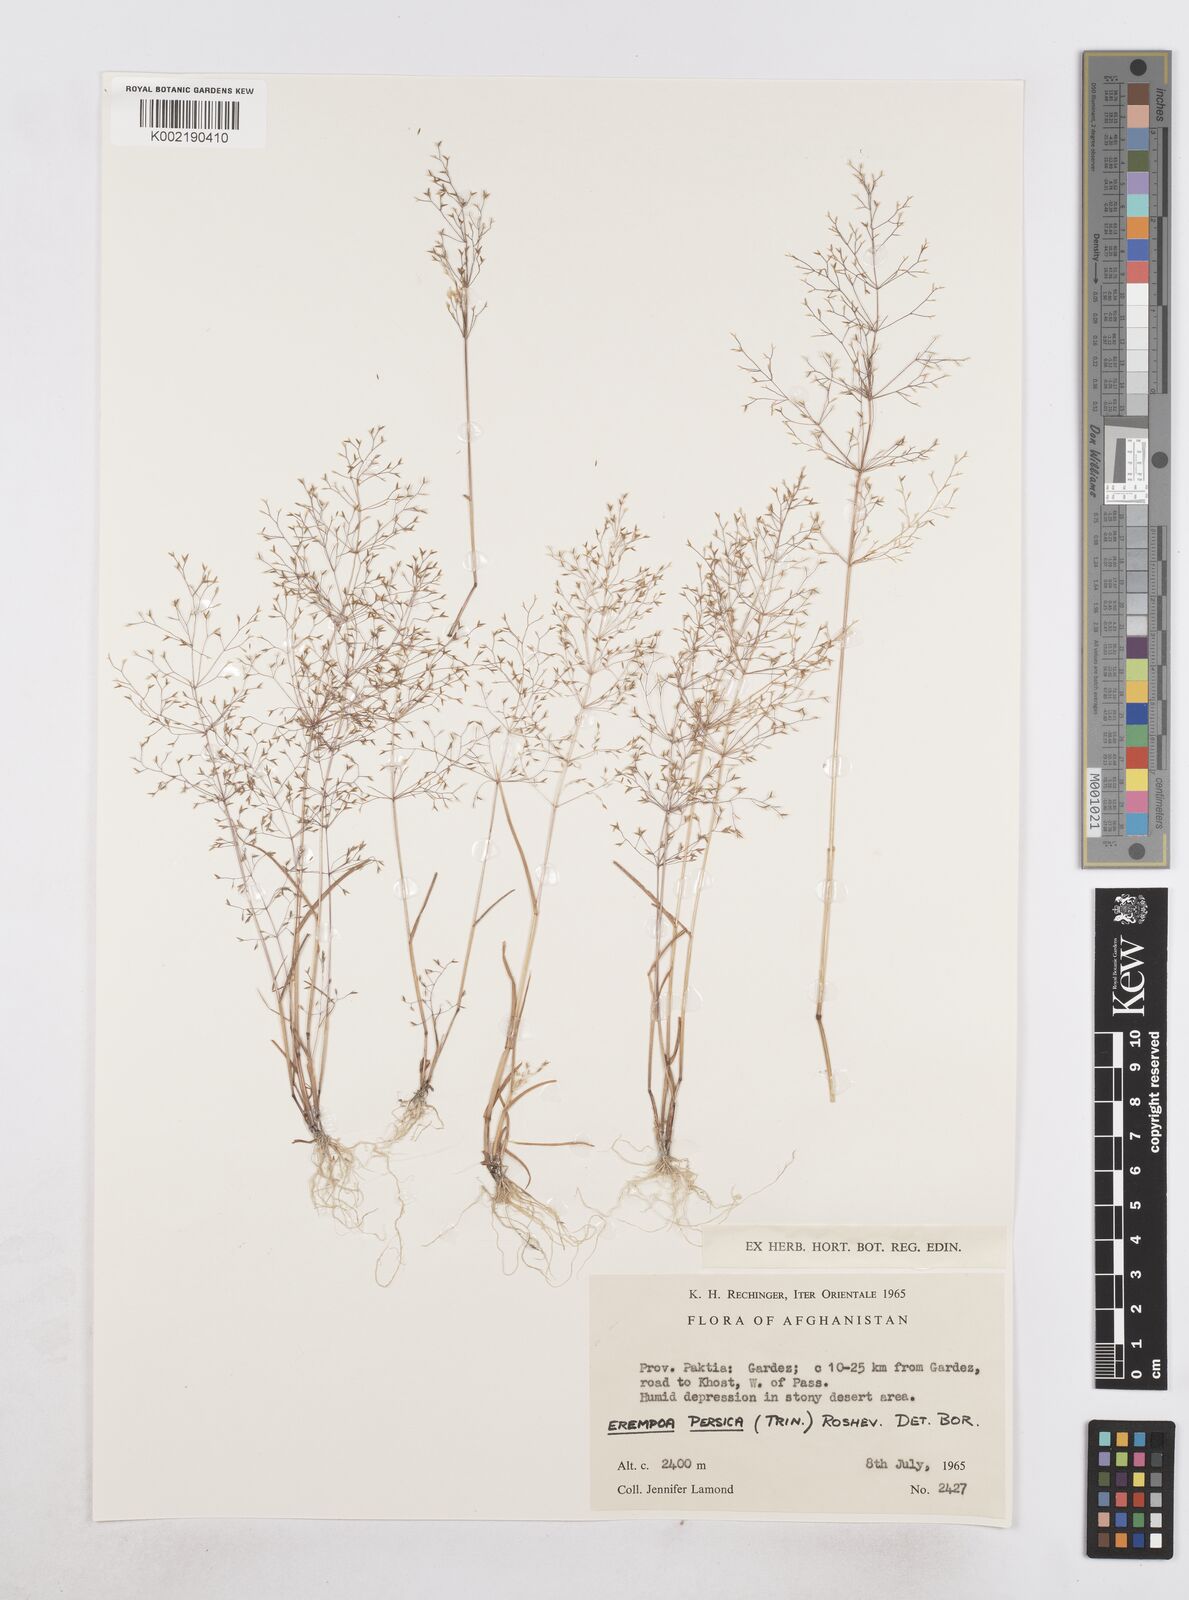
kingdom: Plantae
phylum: Tracheophyta
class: Liliopsida
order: Poales
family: Poaceae
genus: Poa
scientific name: Poa diaphora
